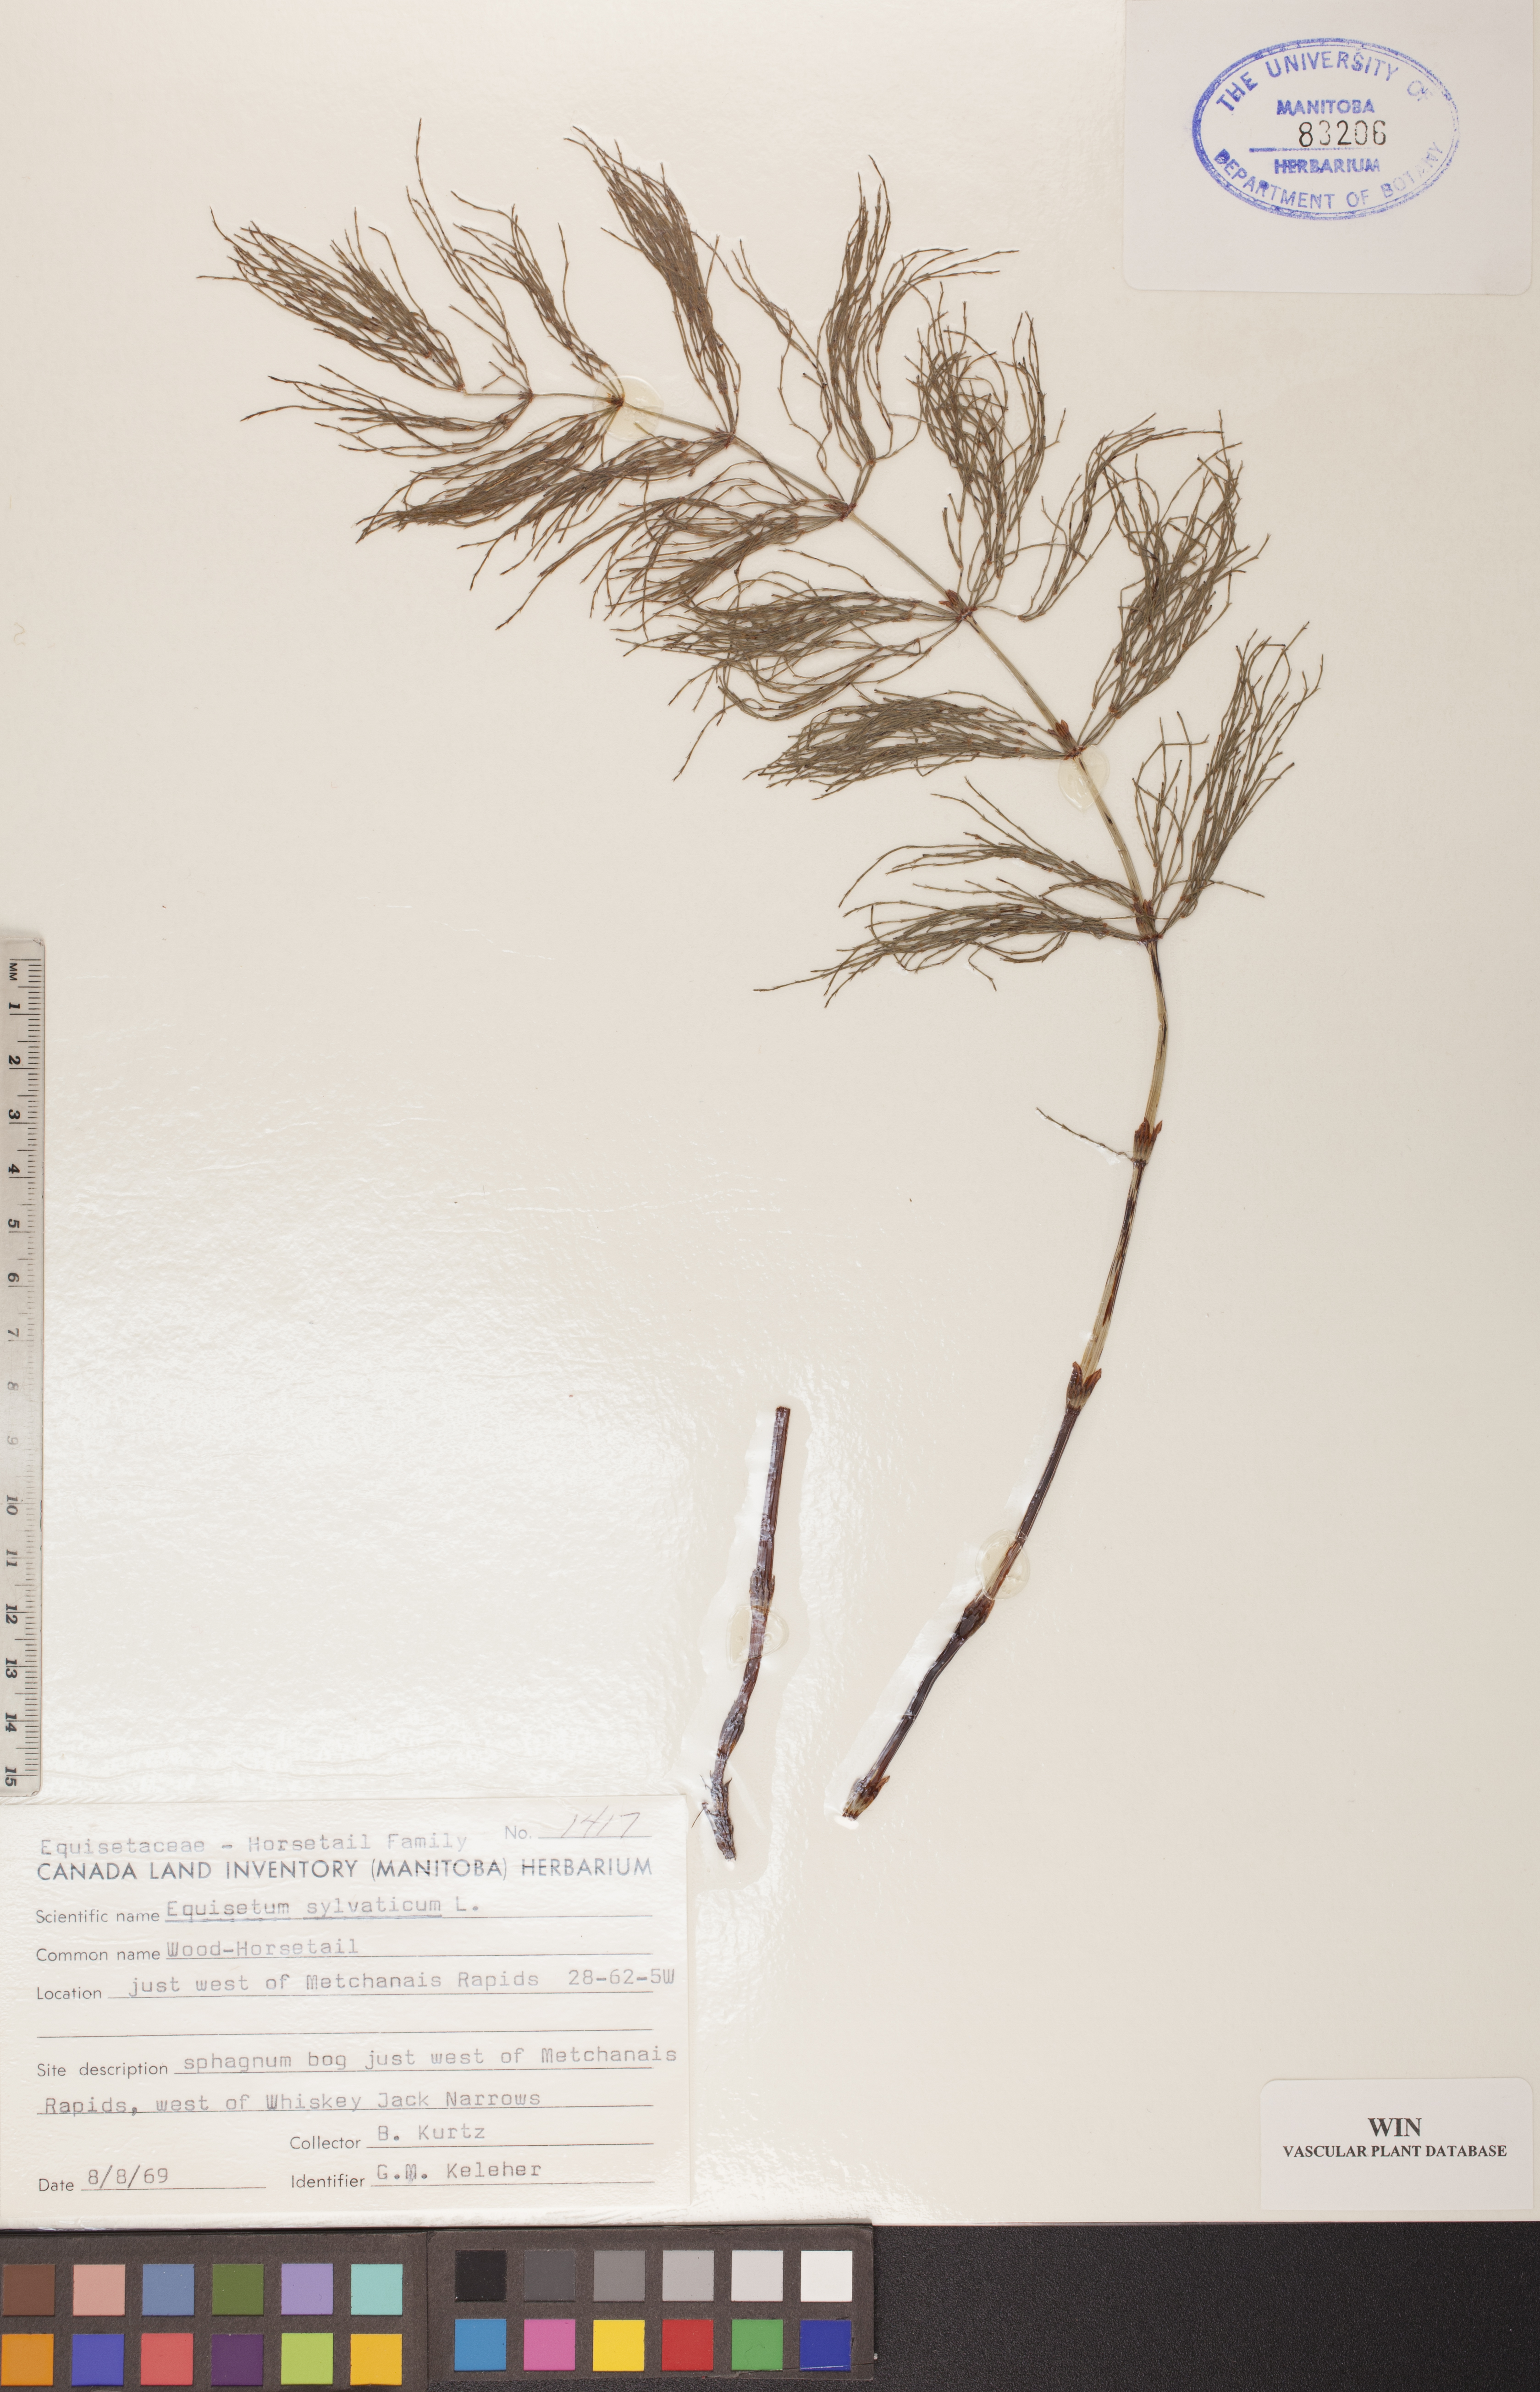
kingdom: Plantae
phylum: Tracheophyta
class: Polypodiopsida
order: Equisetales
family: Equisetaceae
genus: Equisetum
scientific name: Equisetum sylvaticum
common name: Wood horsetail
